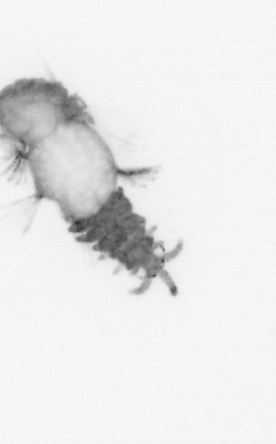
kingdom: Animalia
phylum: Annelida
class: Polychaeta
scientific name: Polychaeta
